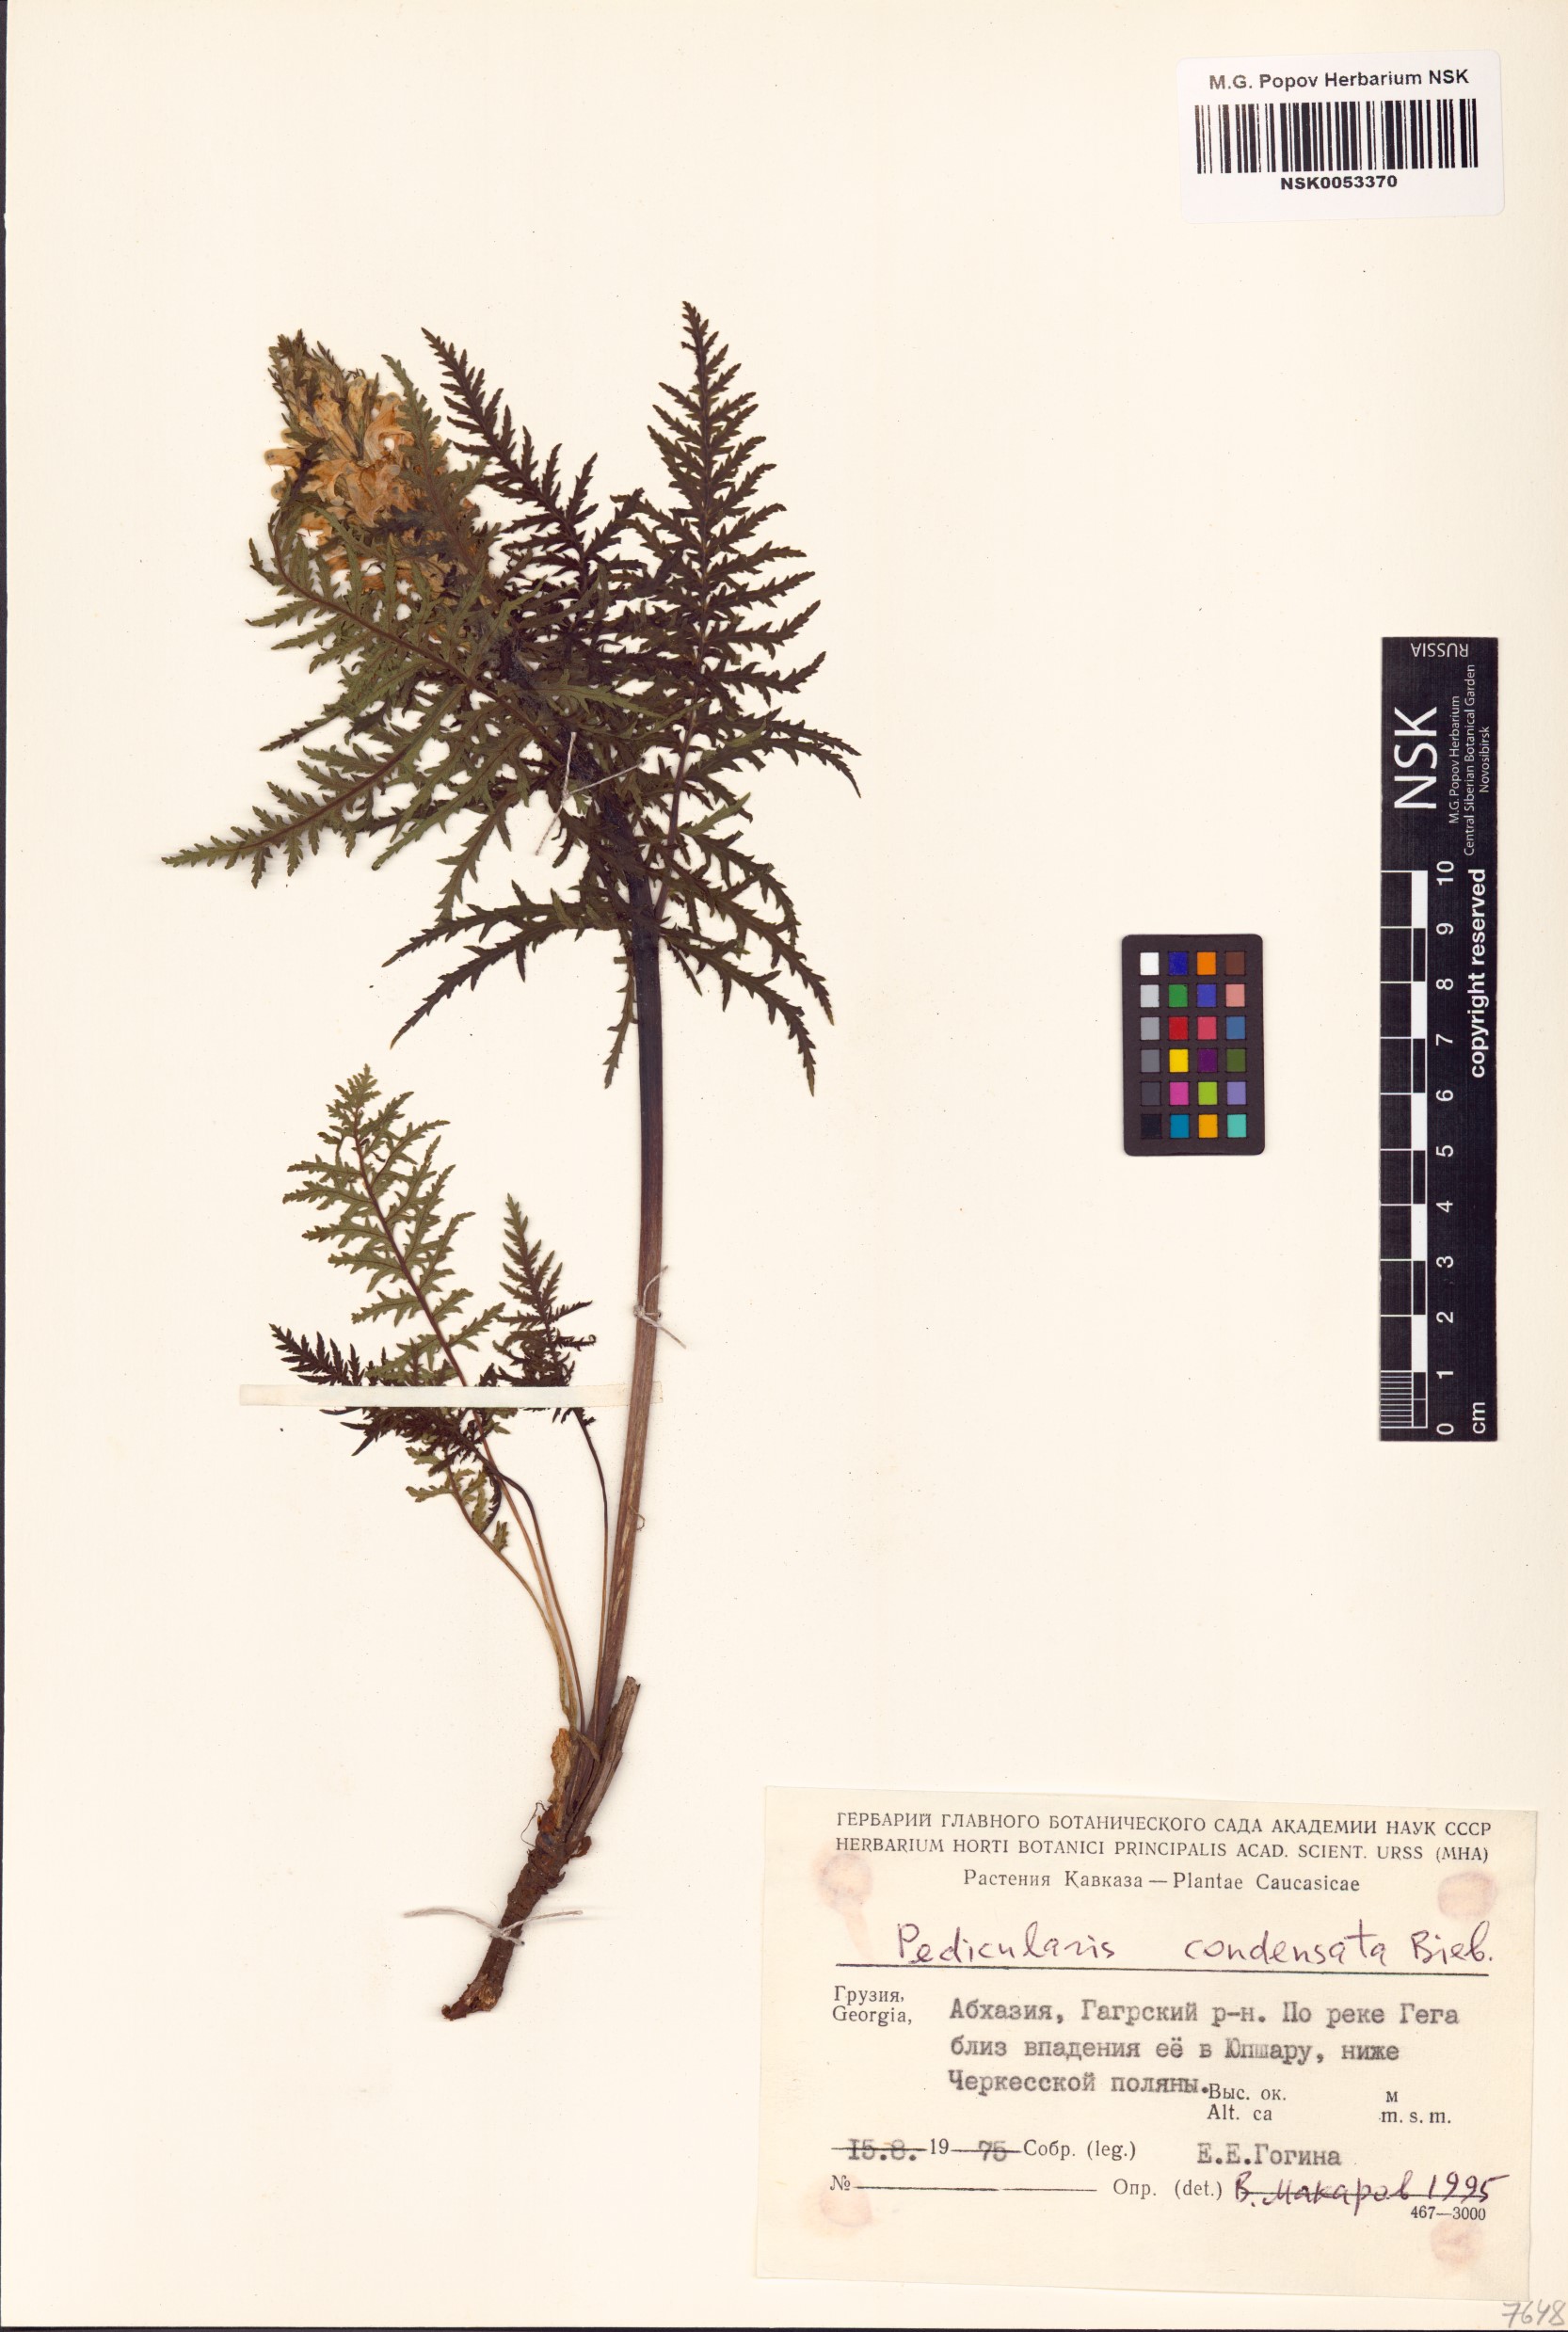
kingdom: Plantae
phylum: Tracheophyta
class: Magnoliopsida
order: Lamiales
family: Orobanchaceae
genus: Pedicularis
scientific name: Pedicularis condensata
